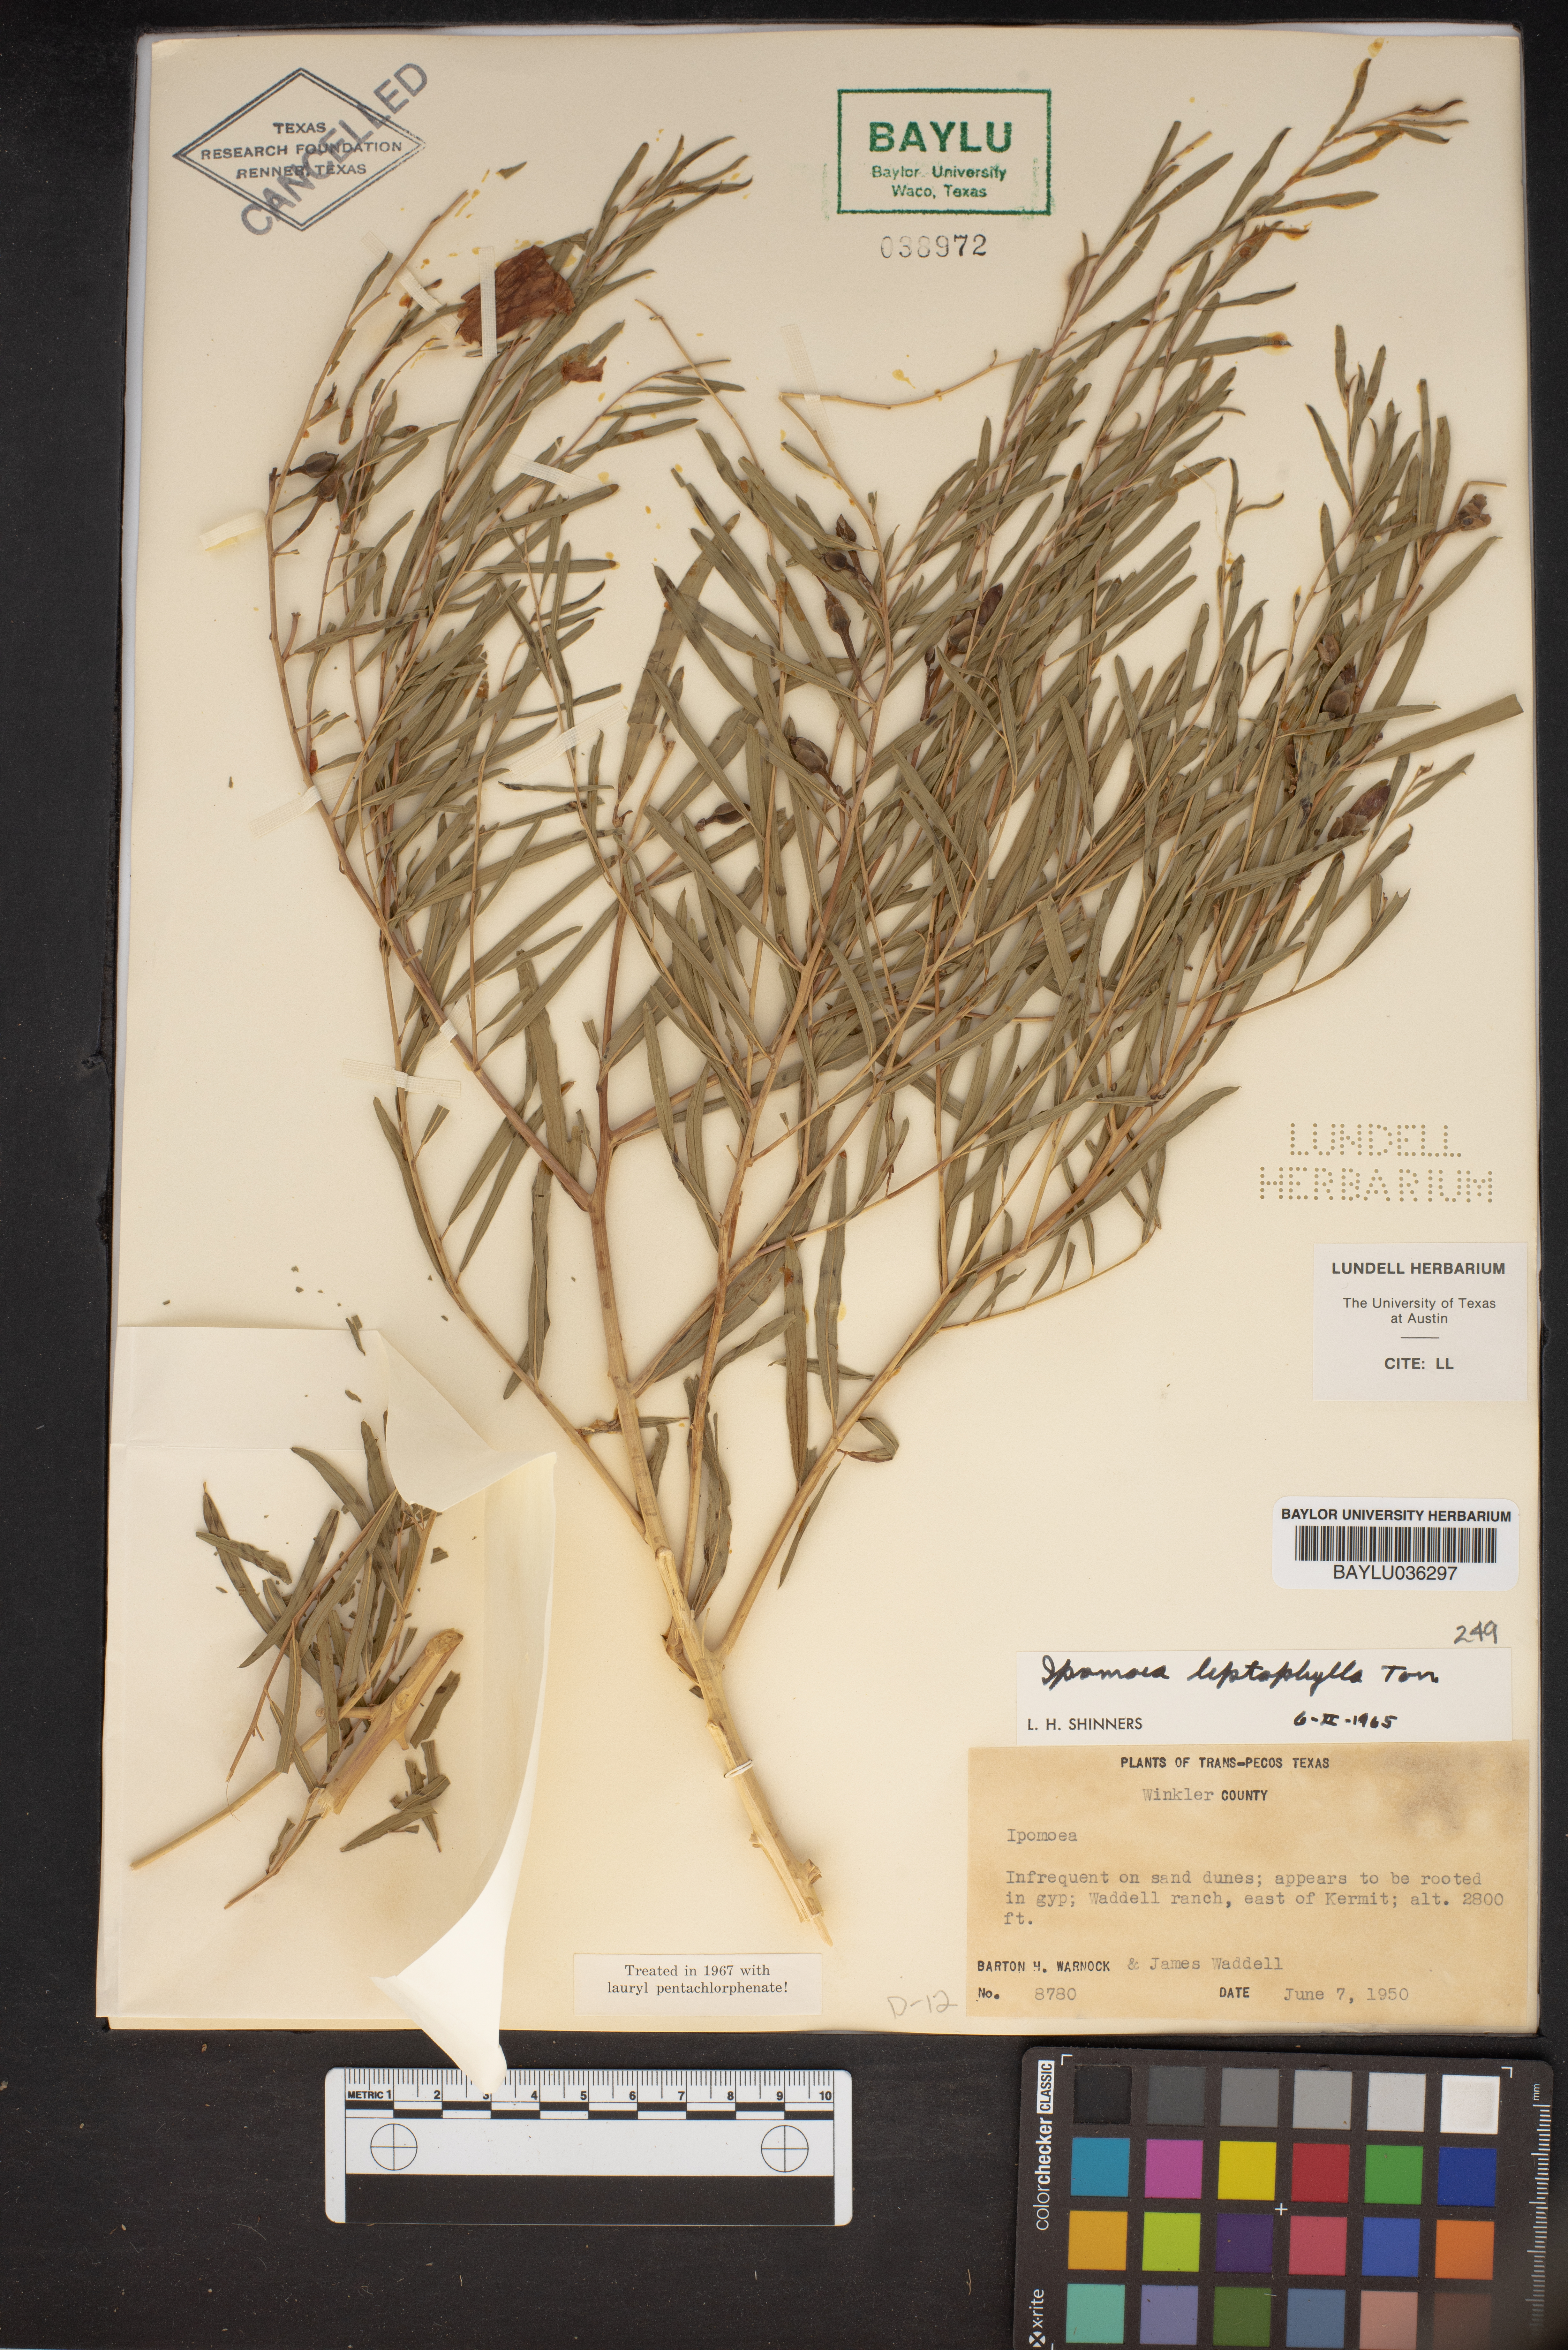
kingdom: Plantae
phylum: Tracheophyta
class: Magnoliopsida
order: Solanales
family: Convolvulaceae
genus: Ipomoea
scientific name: Ipomoea leptophylla
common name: Bush moonflower
